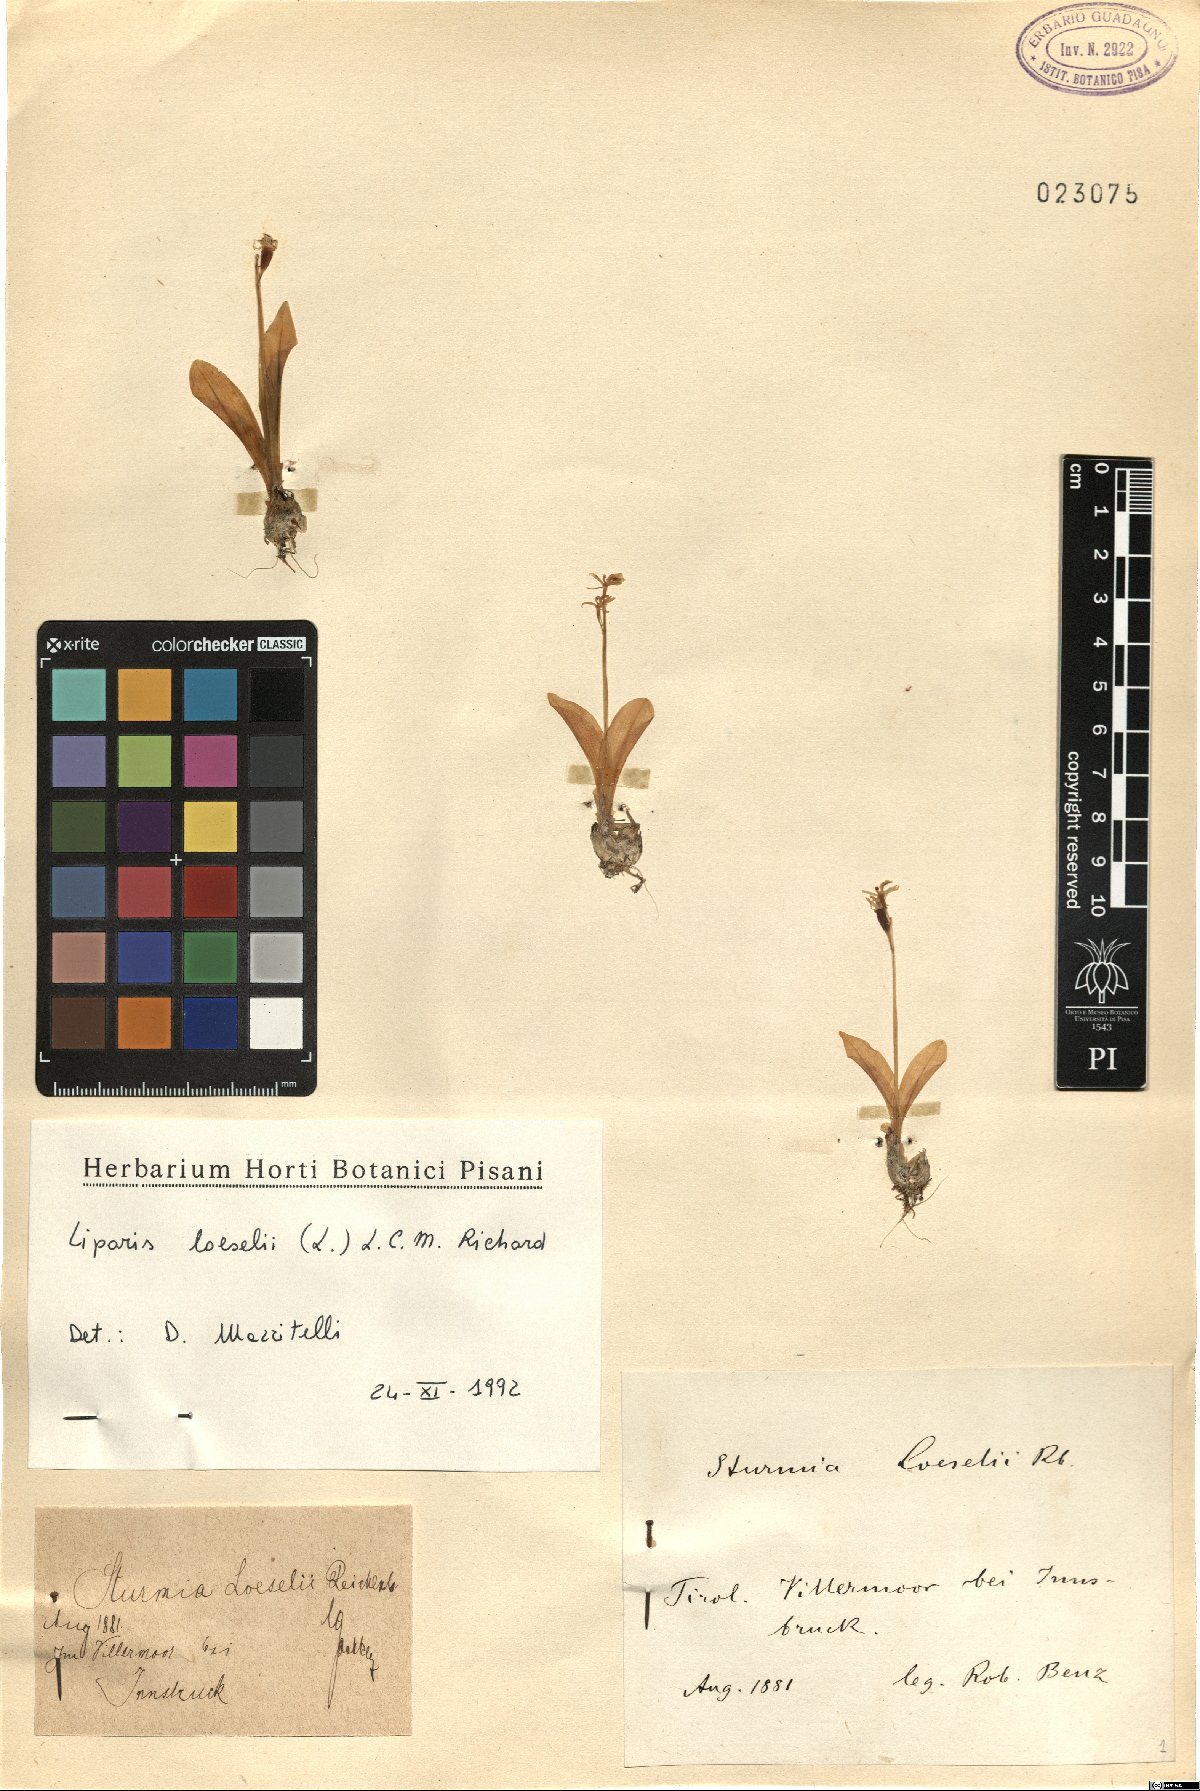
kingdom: Animalia
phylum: Arthropoda
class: Insecta
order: Coleoptera
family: Curculionidae
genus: Liparis
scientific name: Liparis loeselii
